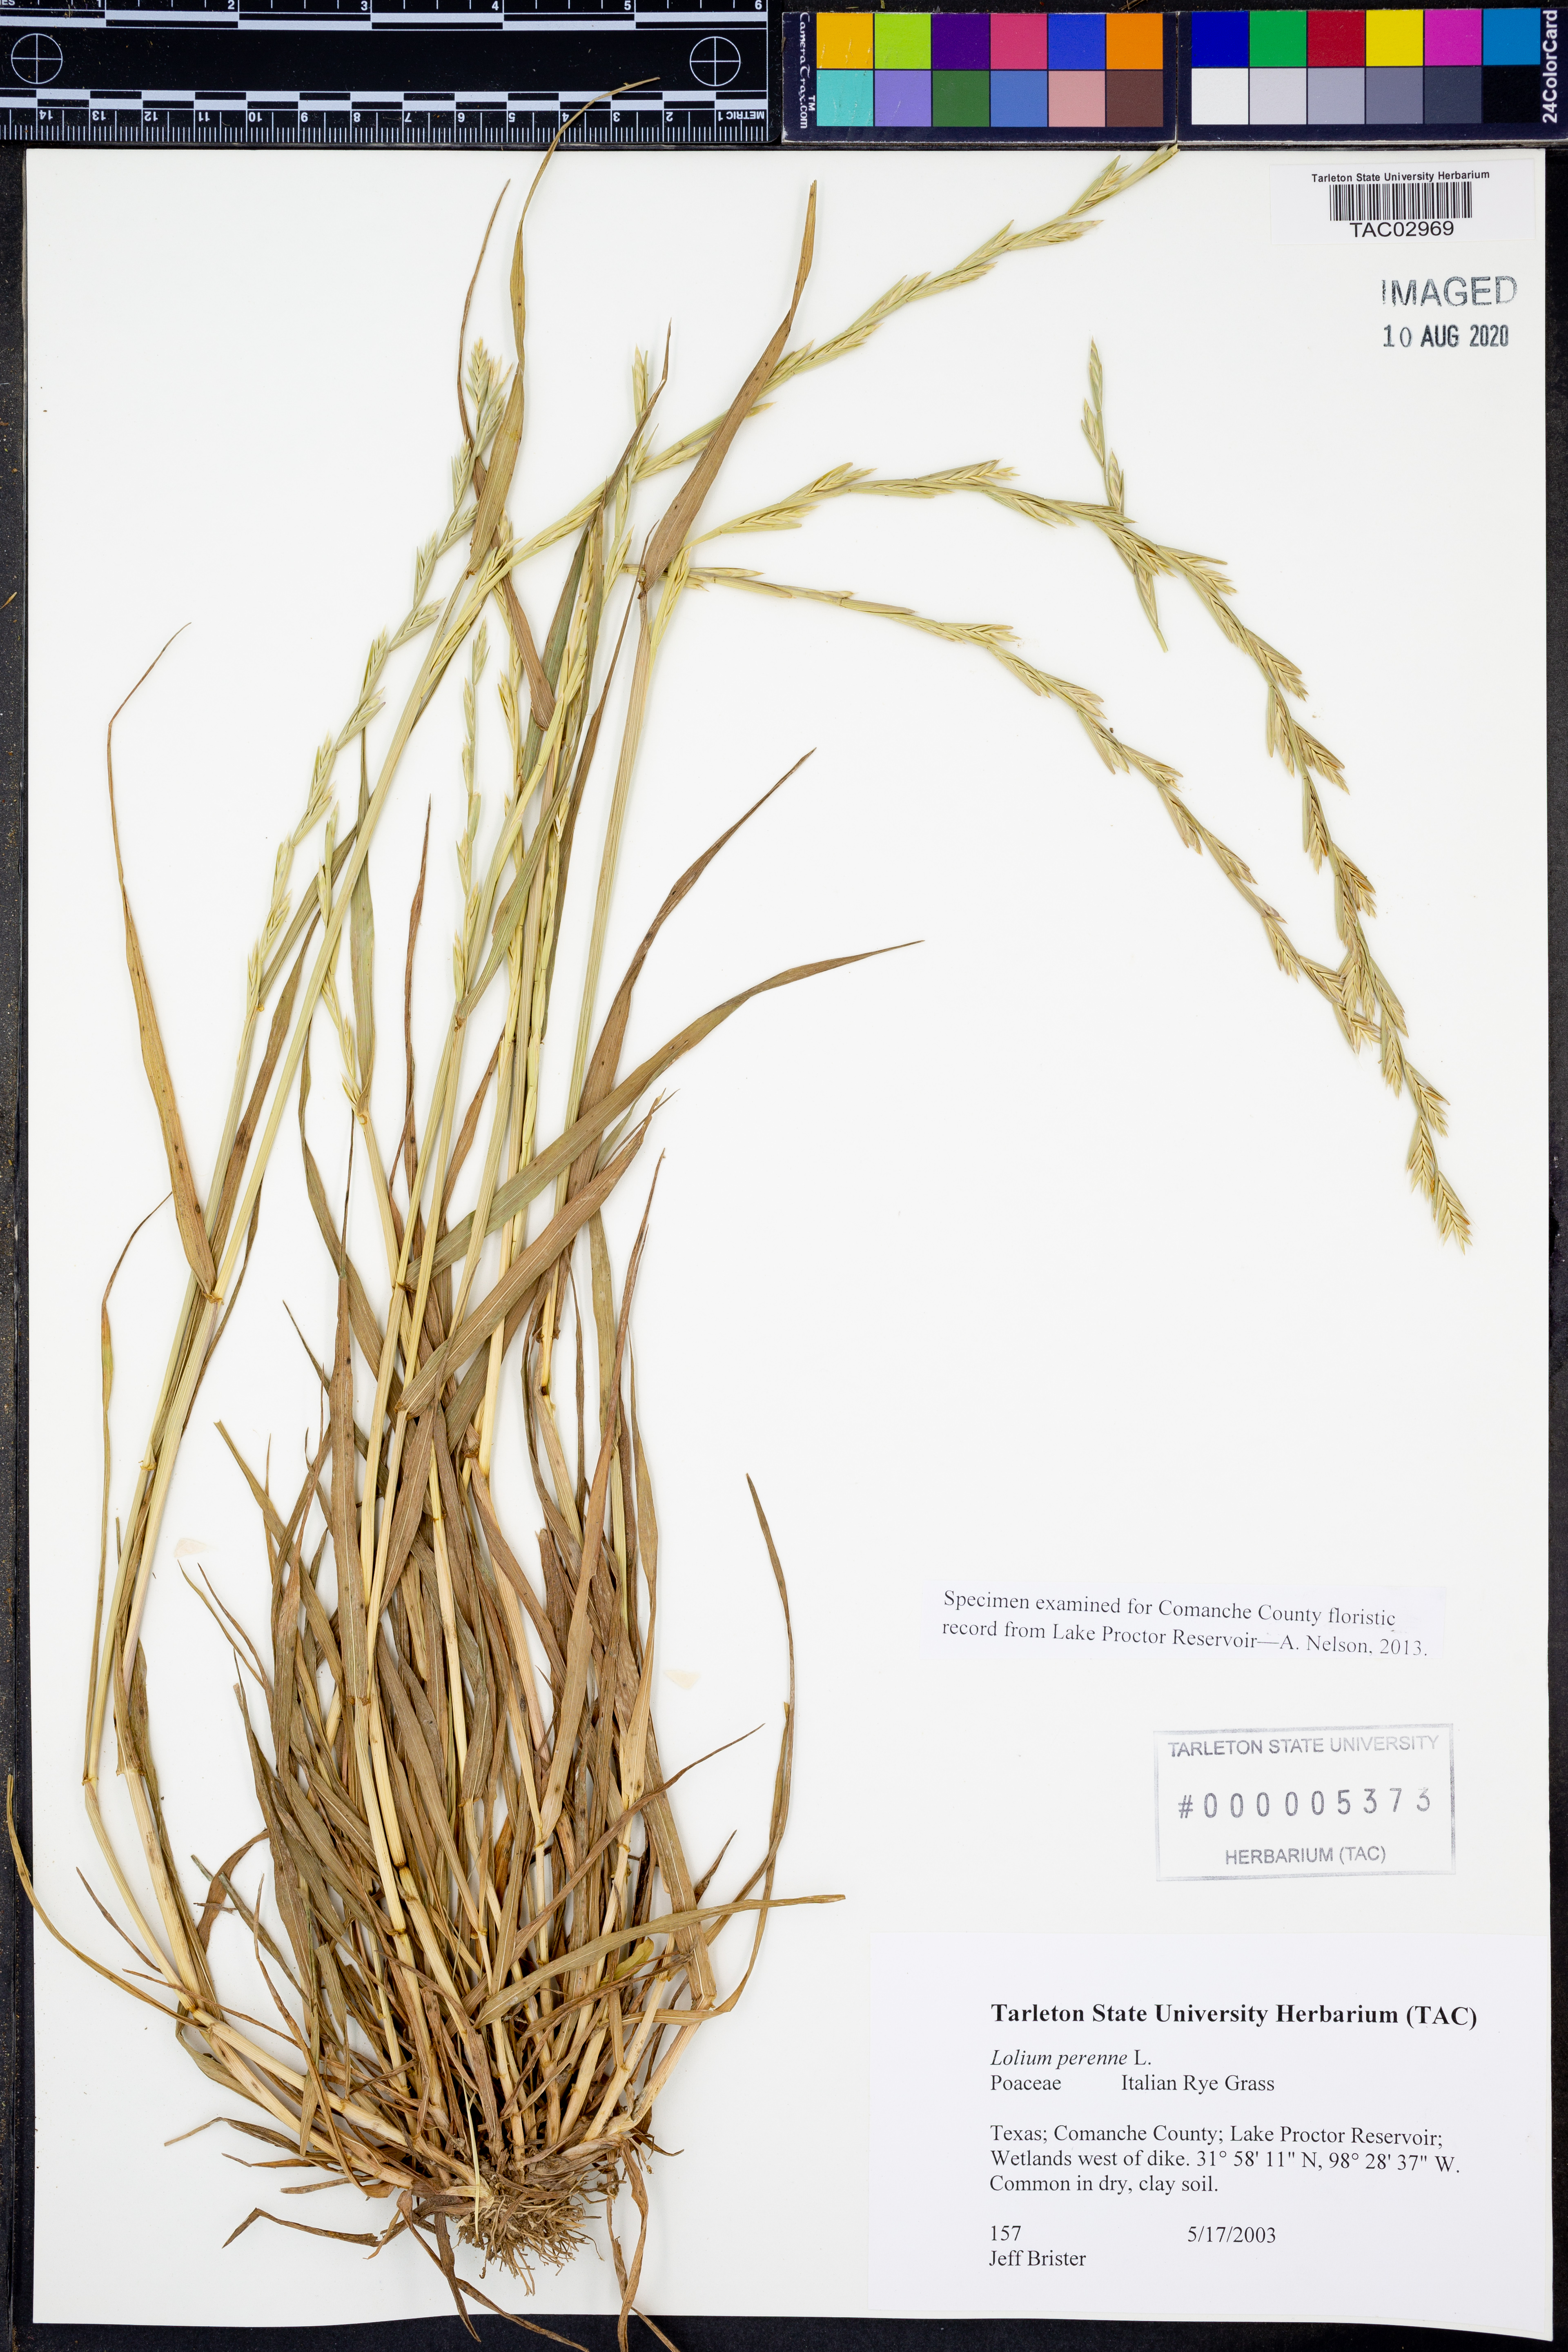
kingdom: Plantae
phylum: Tracheophyta
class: Liliopsida
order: Poales
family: Poaceae
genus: Lolium
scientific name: Lolium perenne
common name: Perennial ryegrass
